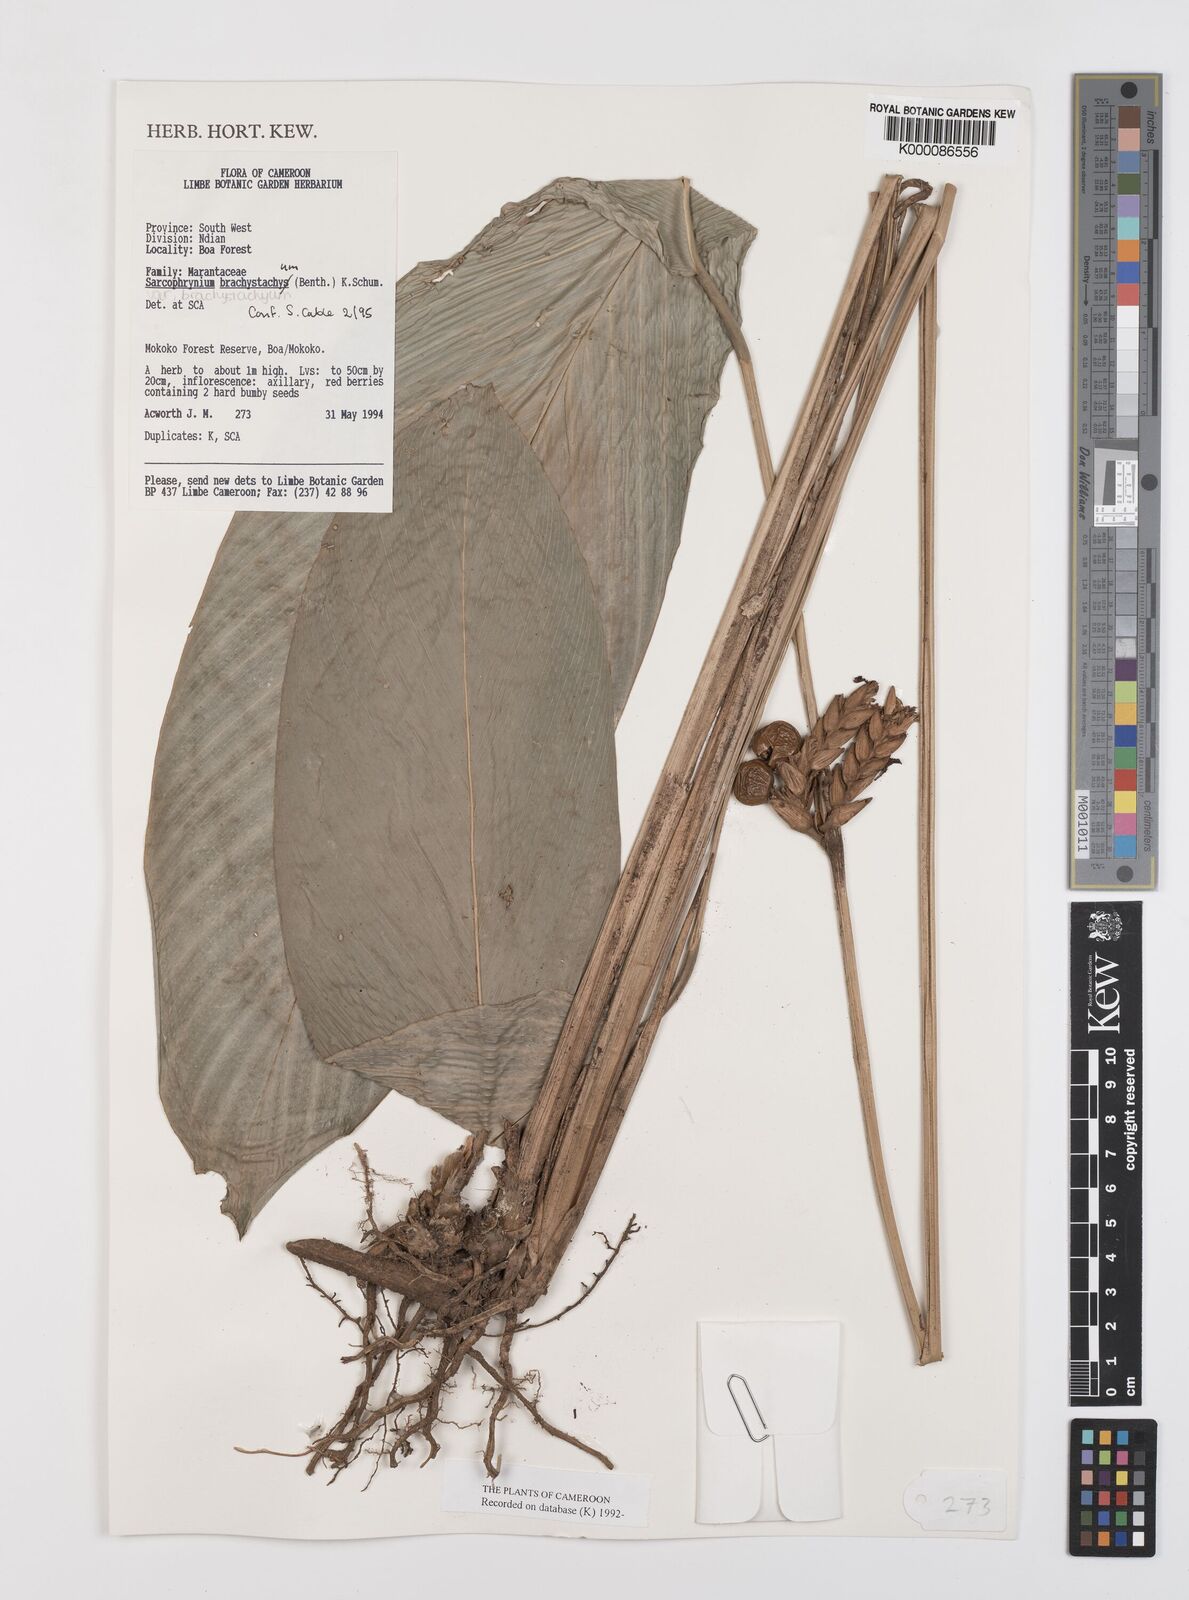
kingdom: Plantae
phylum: Tracheophyta
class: Liliopsida
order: Zingiberales
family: Marantaceae
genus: Sarcophrynium
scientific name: Sarcophrynium
